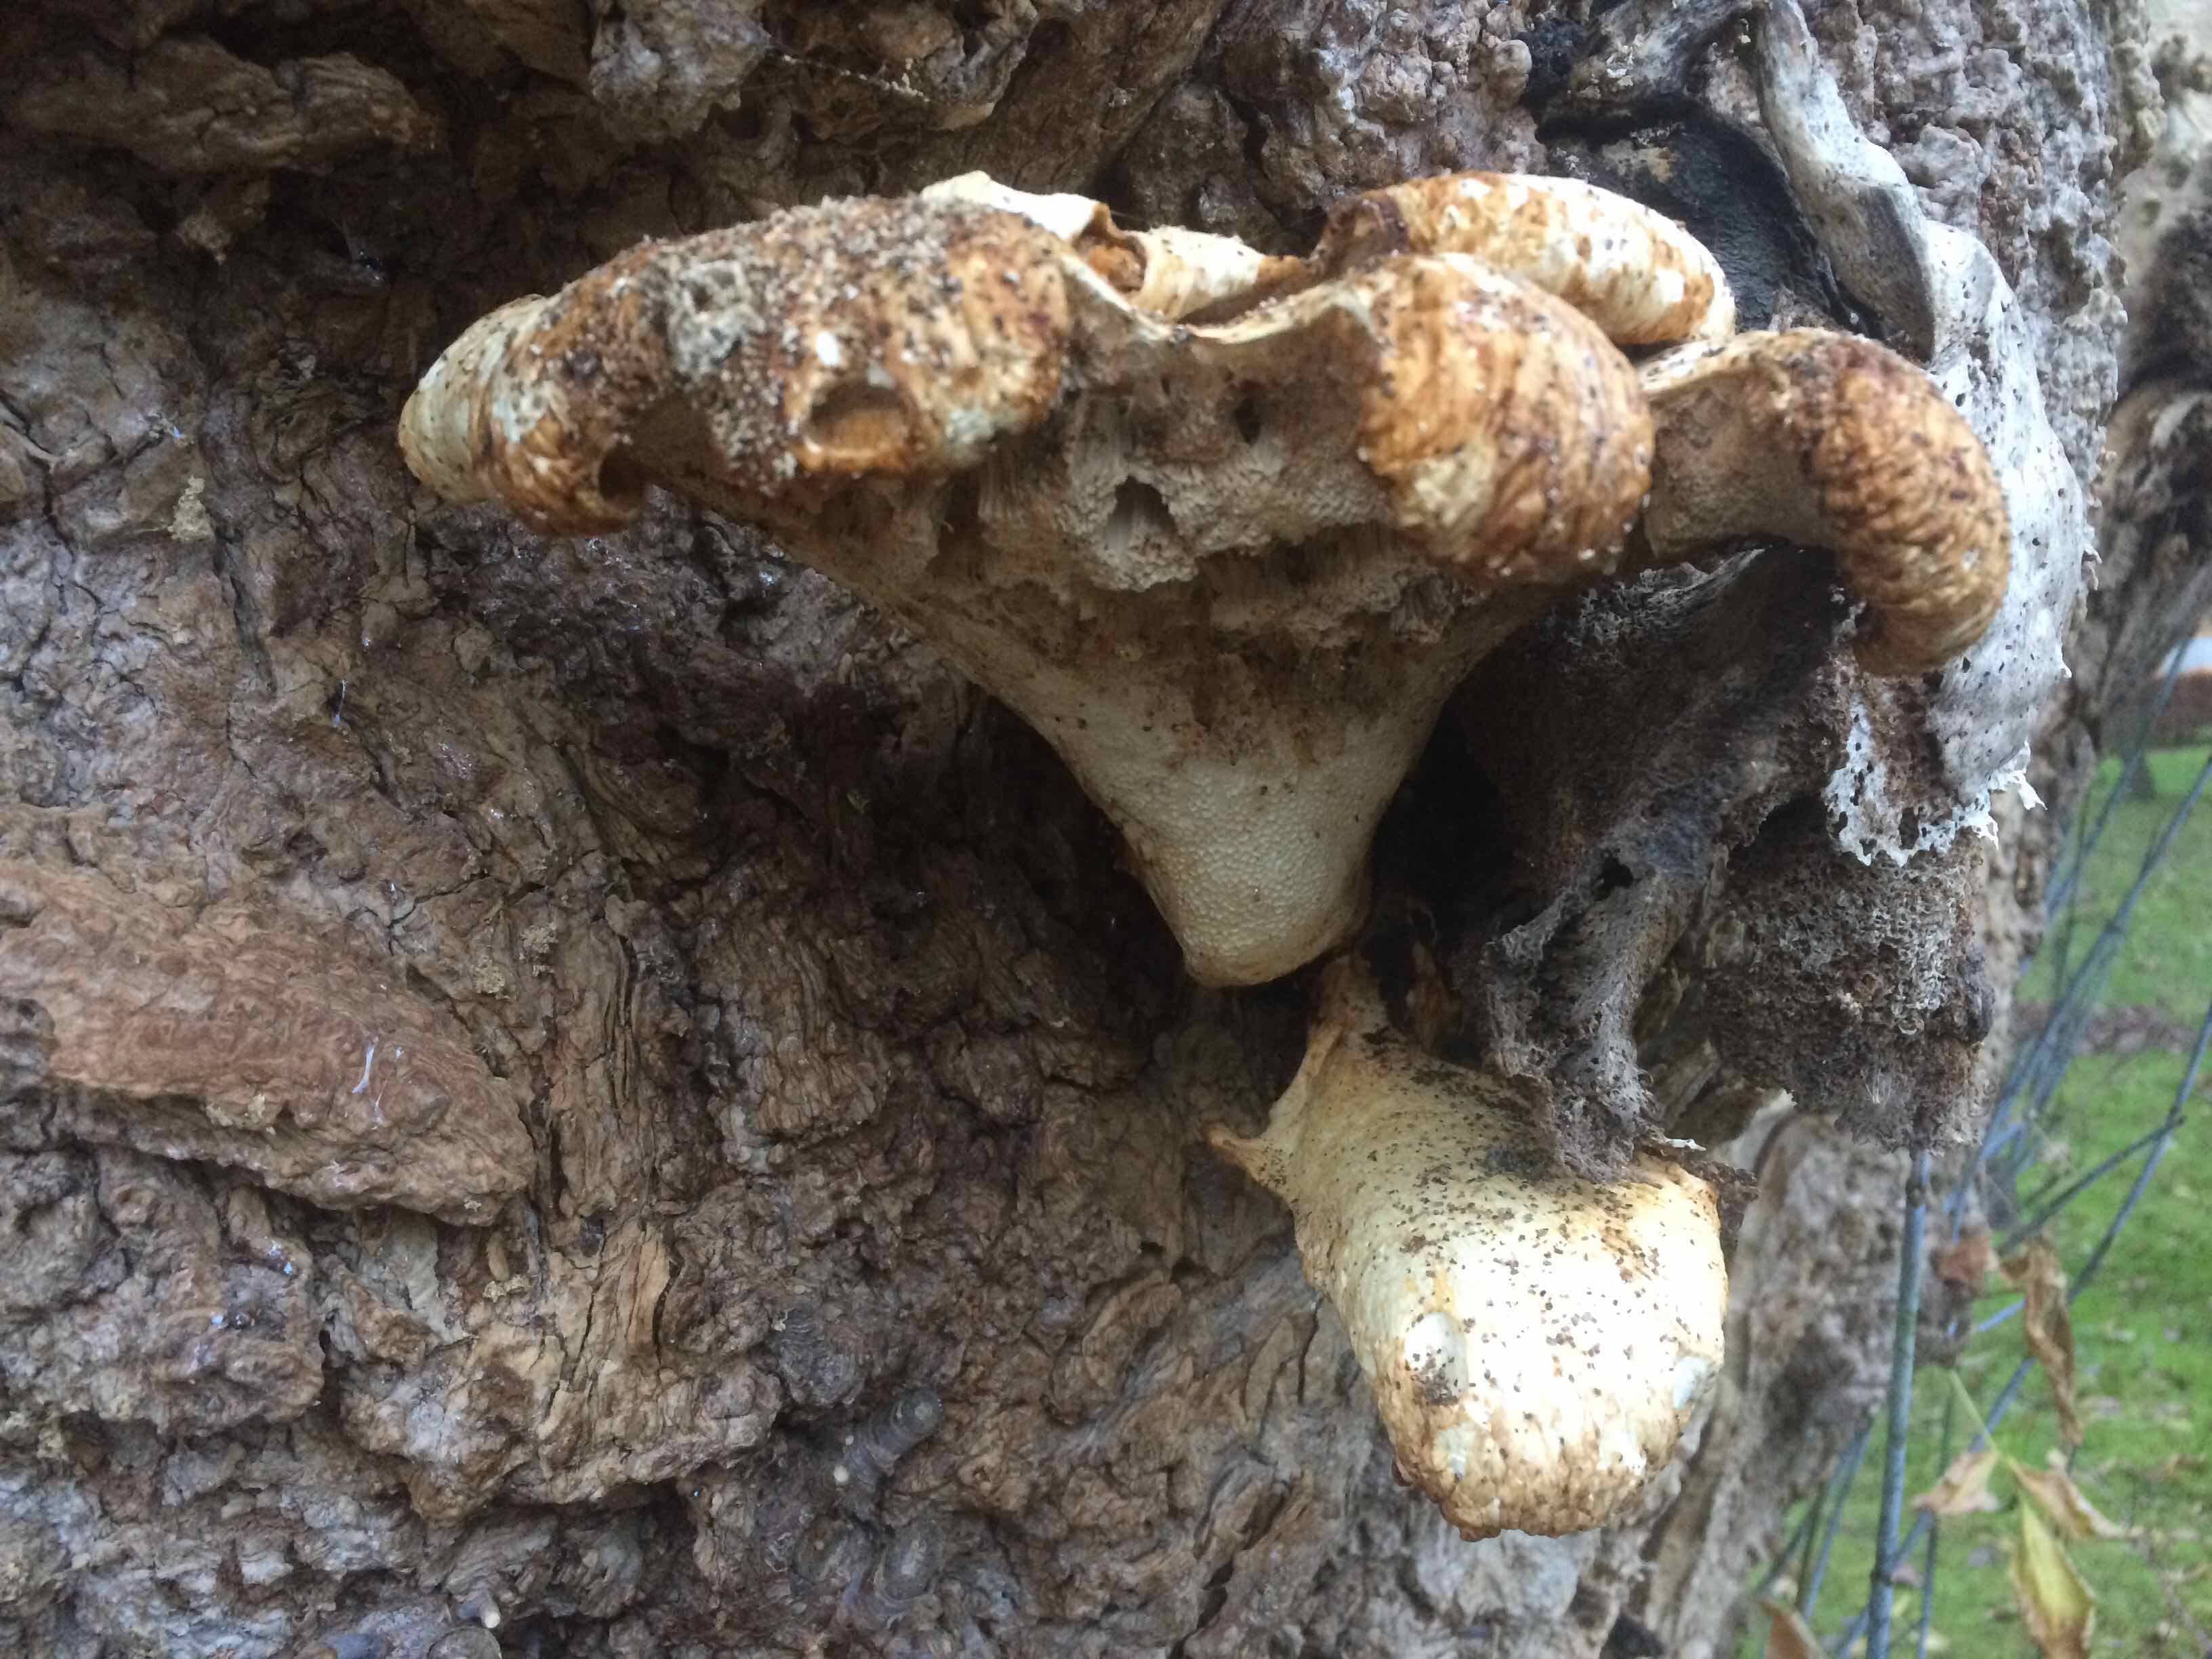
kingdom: Fungi
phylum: Basidiomycota
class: Agaricomycetes
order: Polyporales
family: Polyporaceae
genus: Cerioporus
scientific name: Cerioporus squamosus
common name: skællet stilkporesvamp
